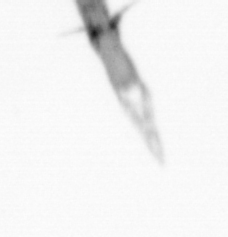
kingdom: Animalia
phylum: Arthropoda
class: Copepoda
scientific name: Copepoda
